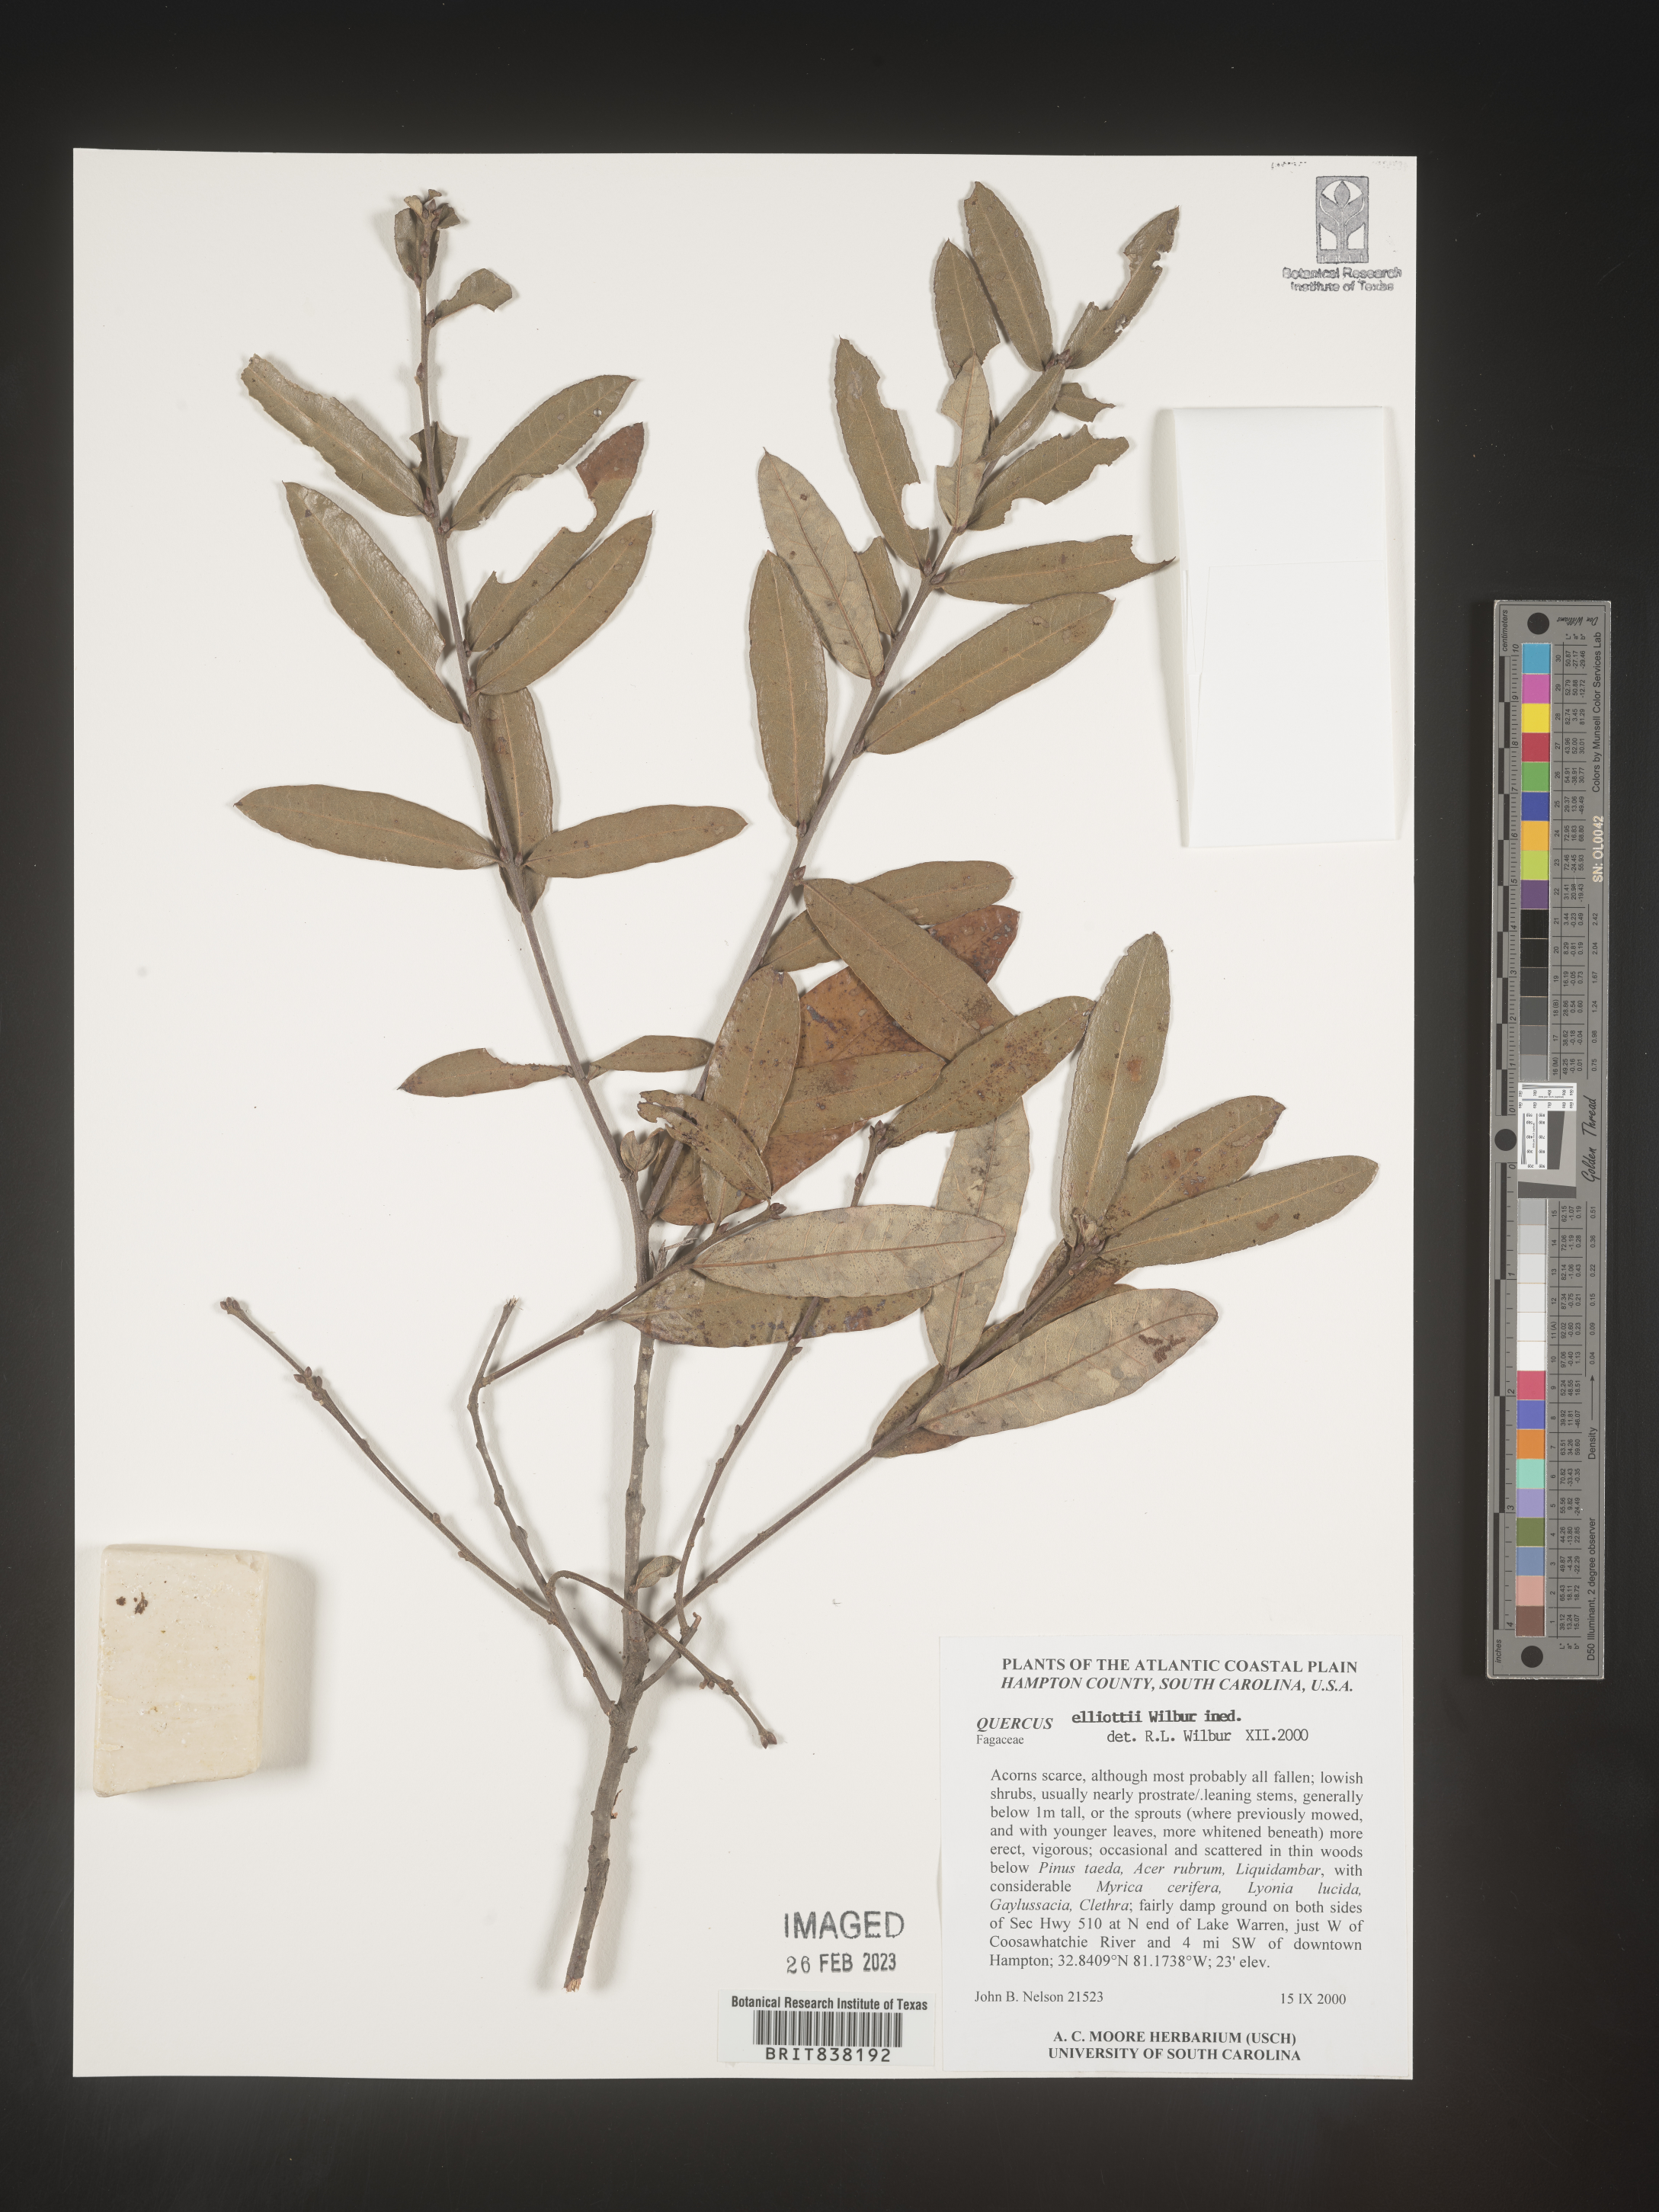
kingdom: Plantae
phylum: Tracheophyta
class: Magnoliopsida
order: Fagales
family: Fagaceae
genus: Quercus
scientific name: Quercus pumila
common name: Runner oak
